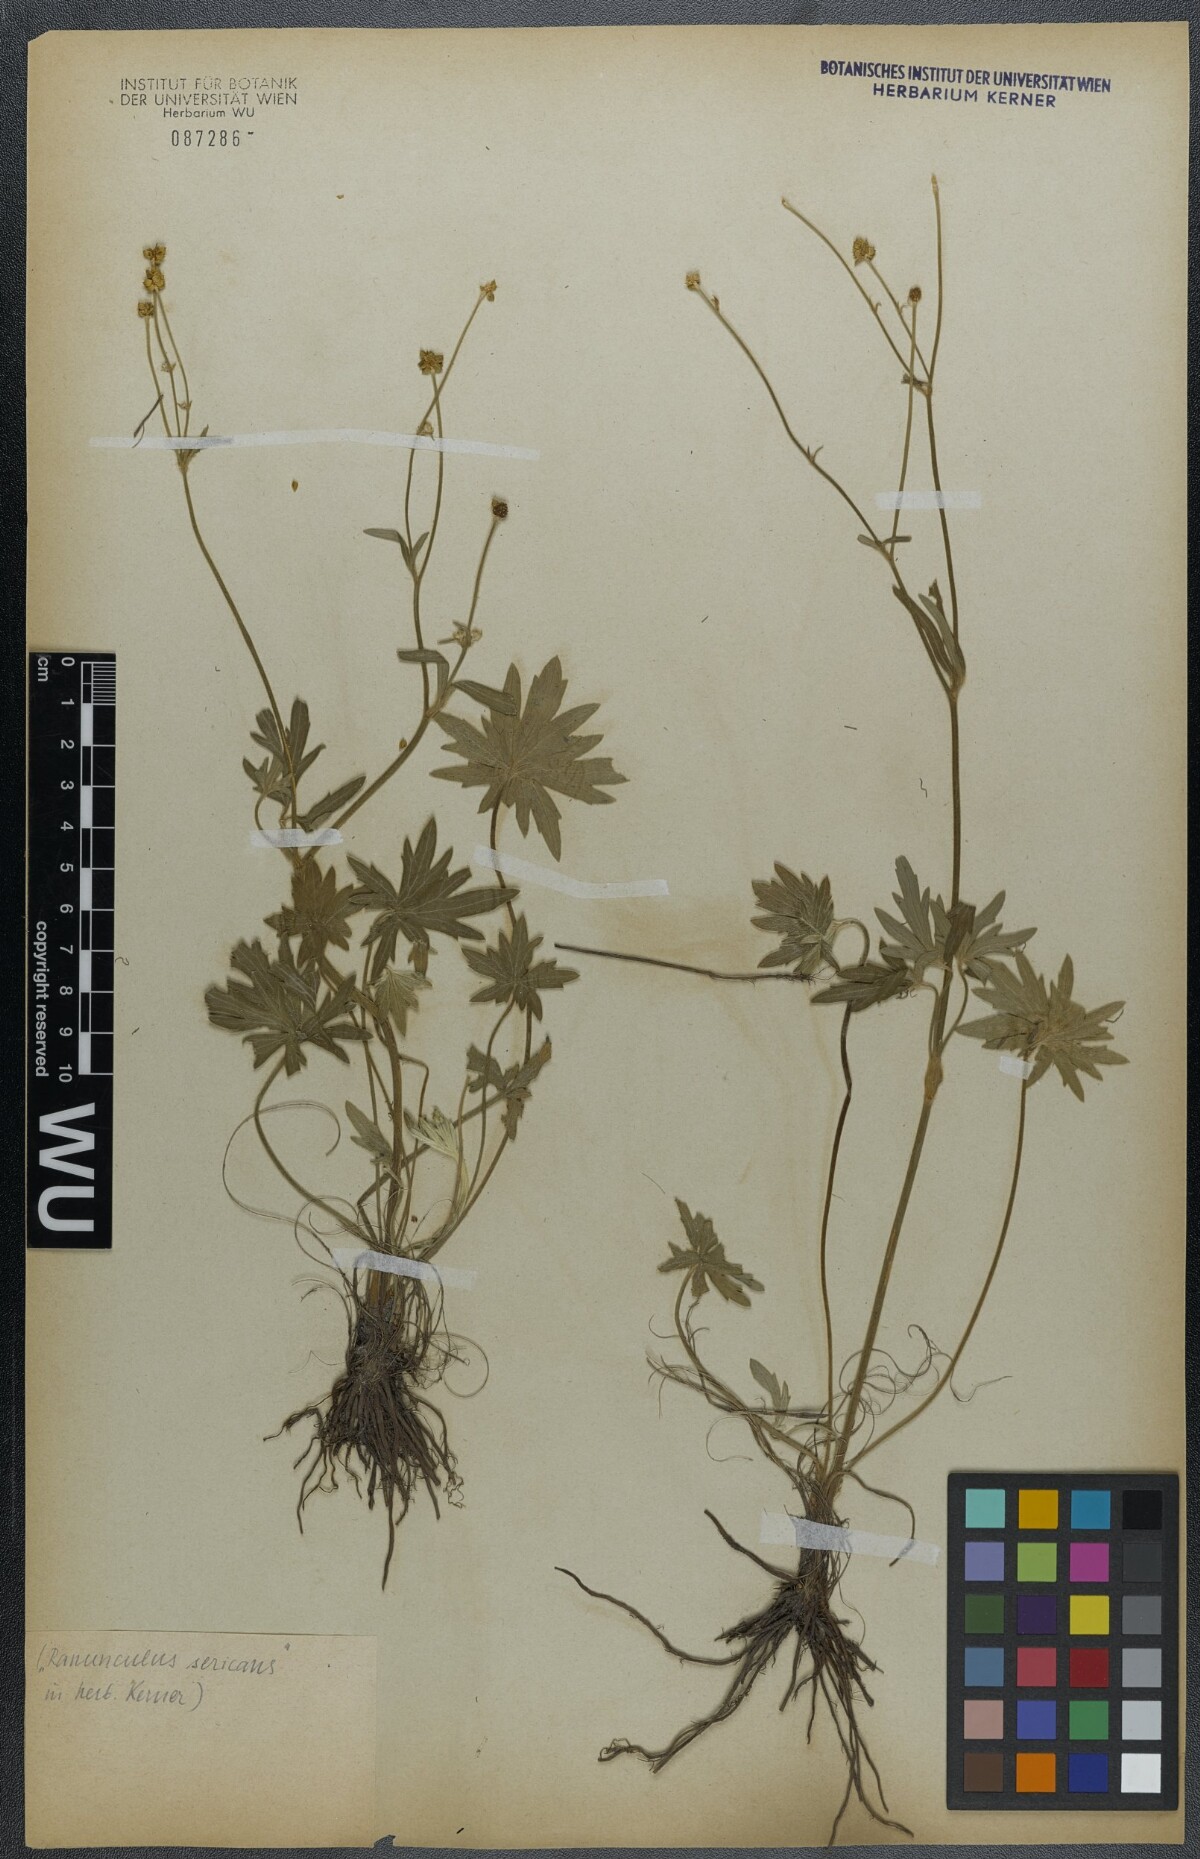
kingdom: Plantae
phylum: Tracheophyta
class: Magnoliopsida
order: Ranunculales
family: Ranunculaceae
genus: Ranunculus
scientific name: Ranunculus acris
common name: Meadow buttercup
